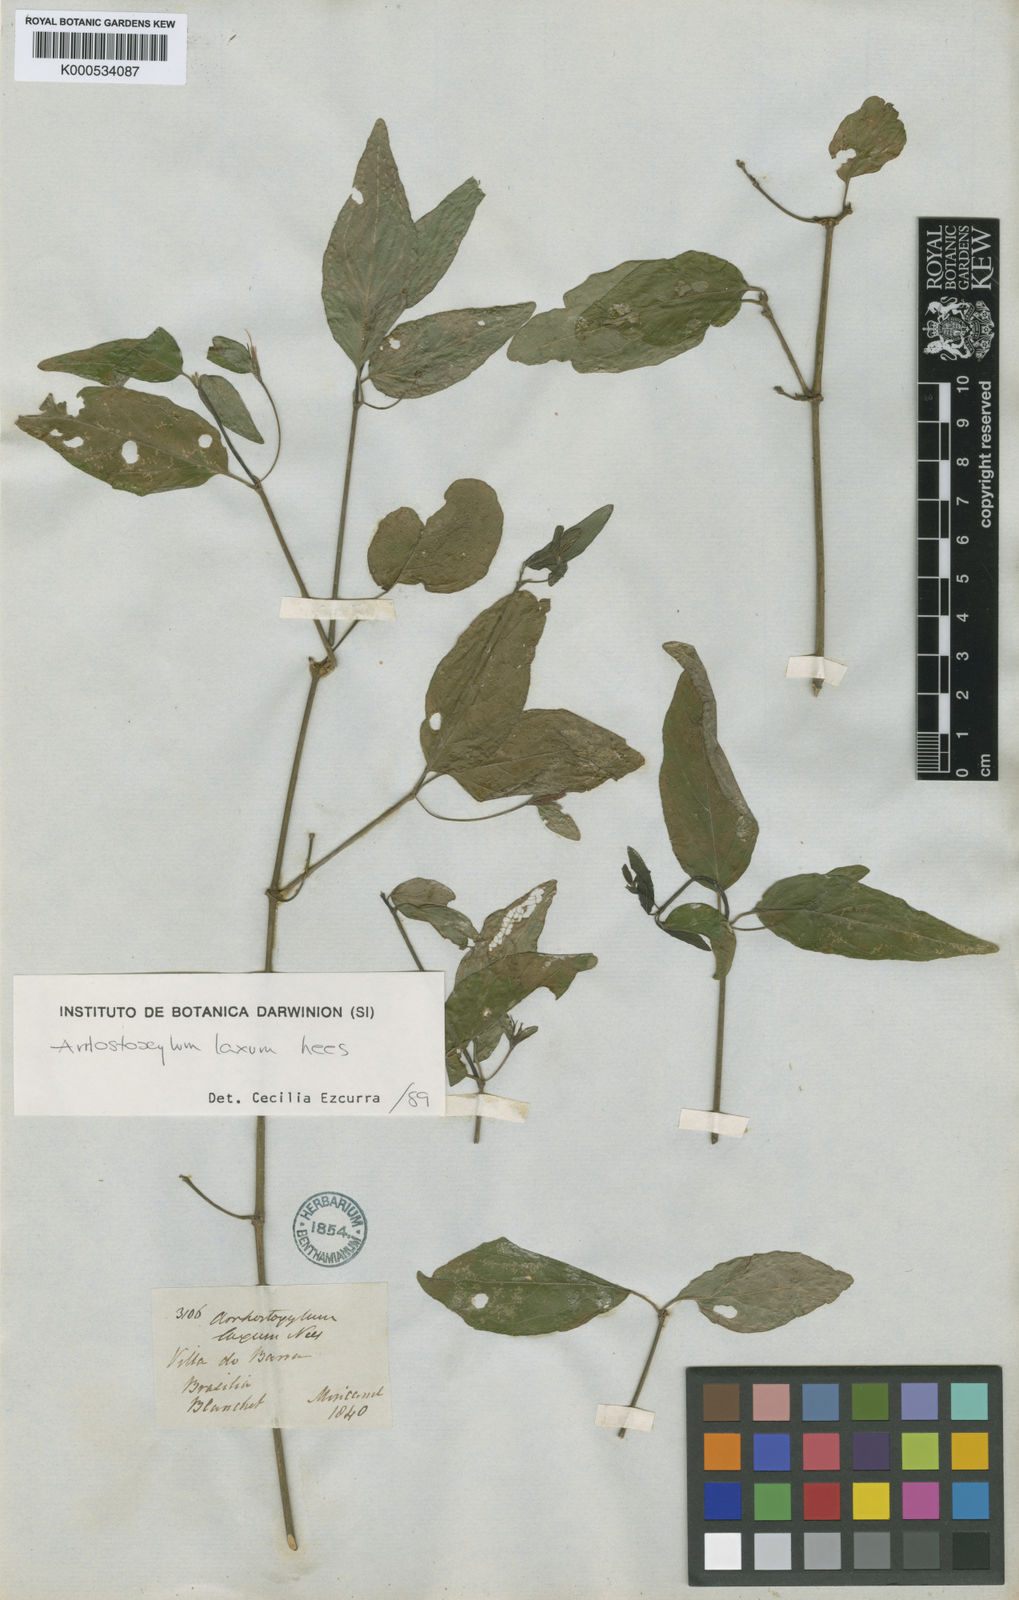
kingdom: Plantae
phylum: Tracheophyta
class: Magnoliopsida
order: Lamiales
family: Acanthaceae
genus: Ruellia
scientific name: Ruellia laxa
